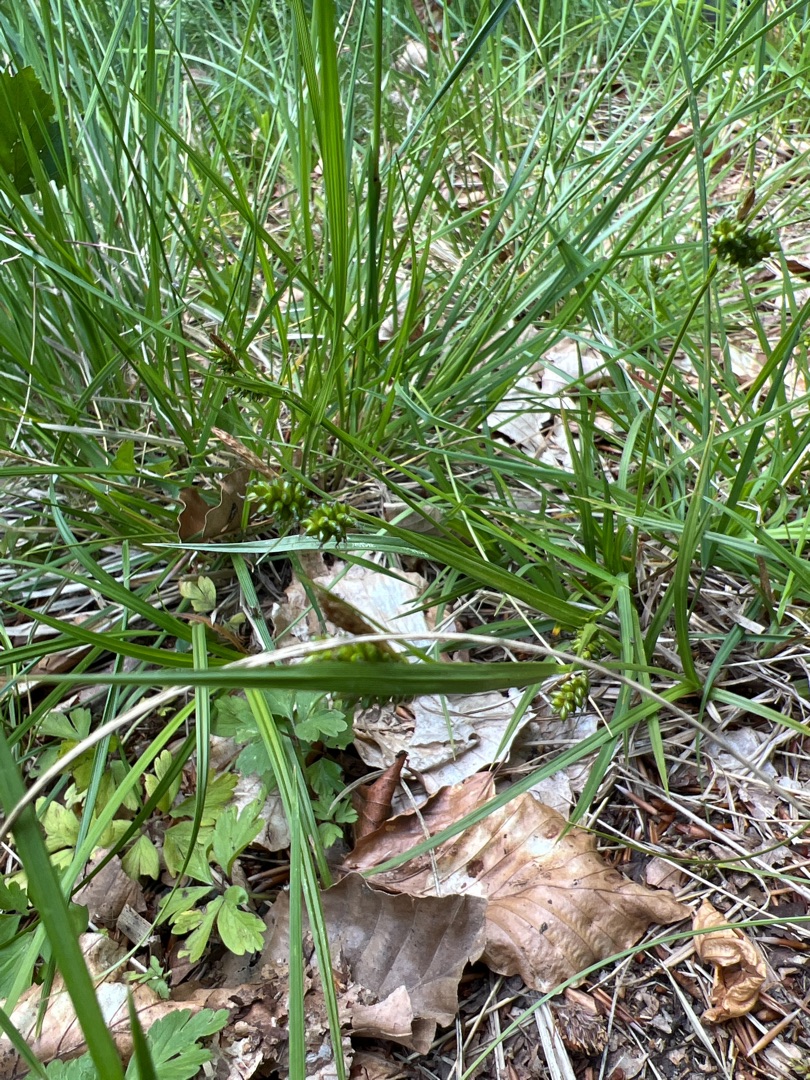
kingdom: Plantae
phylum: Tracheophyta
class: Liliopsida
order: Poales
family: Cyperaceae
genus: Carex
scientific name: Carex pallescens
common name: Bleg star
